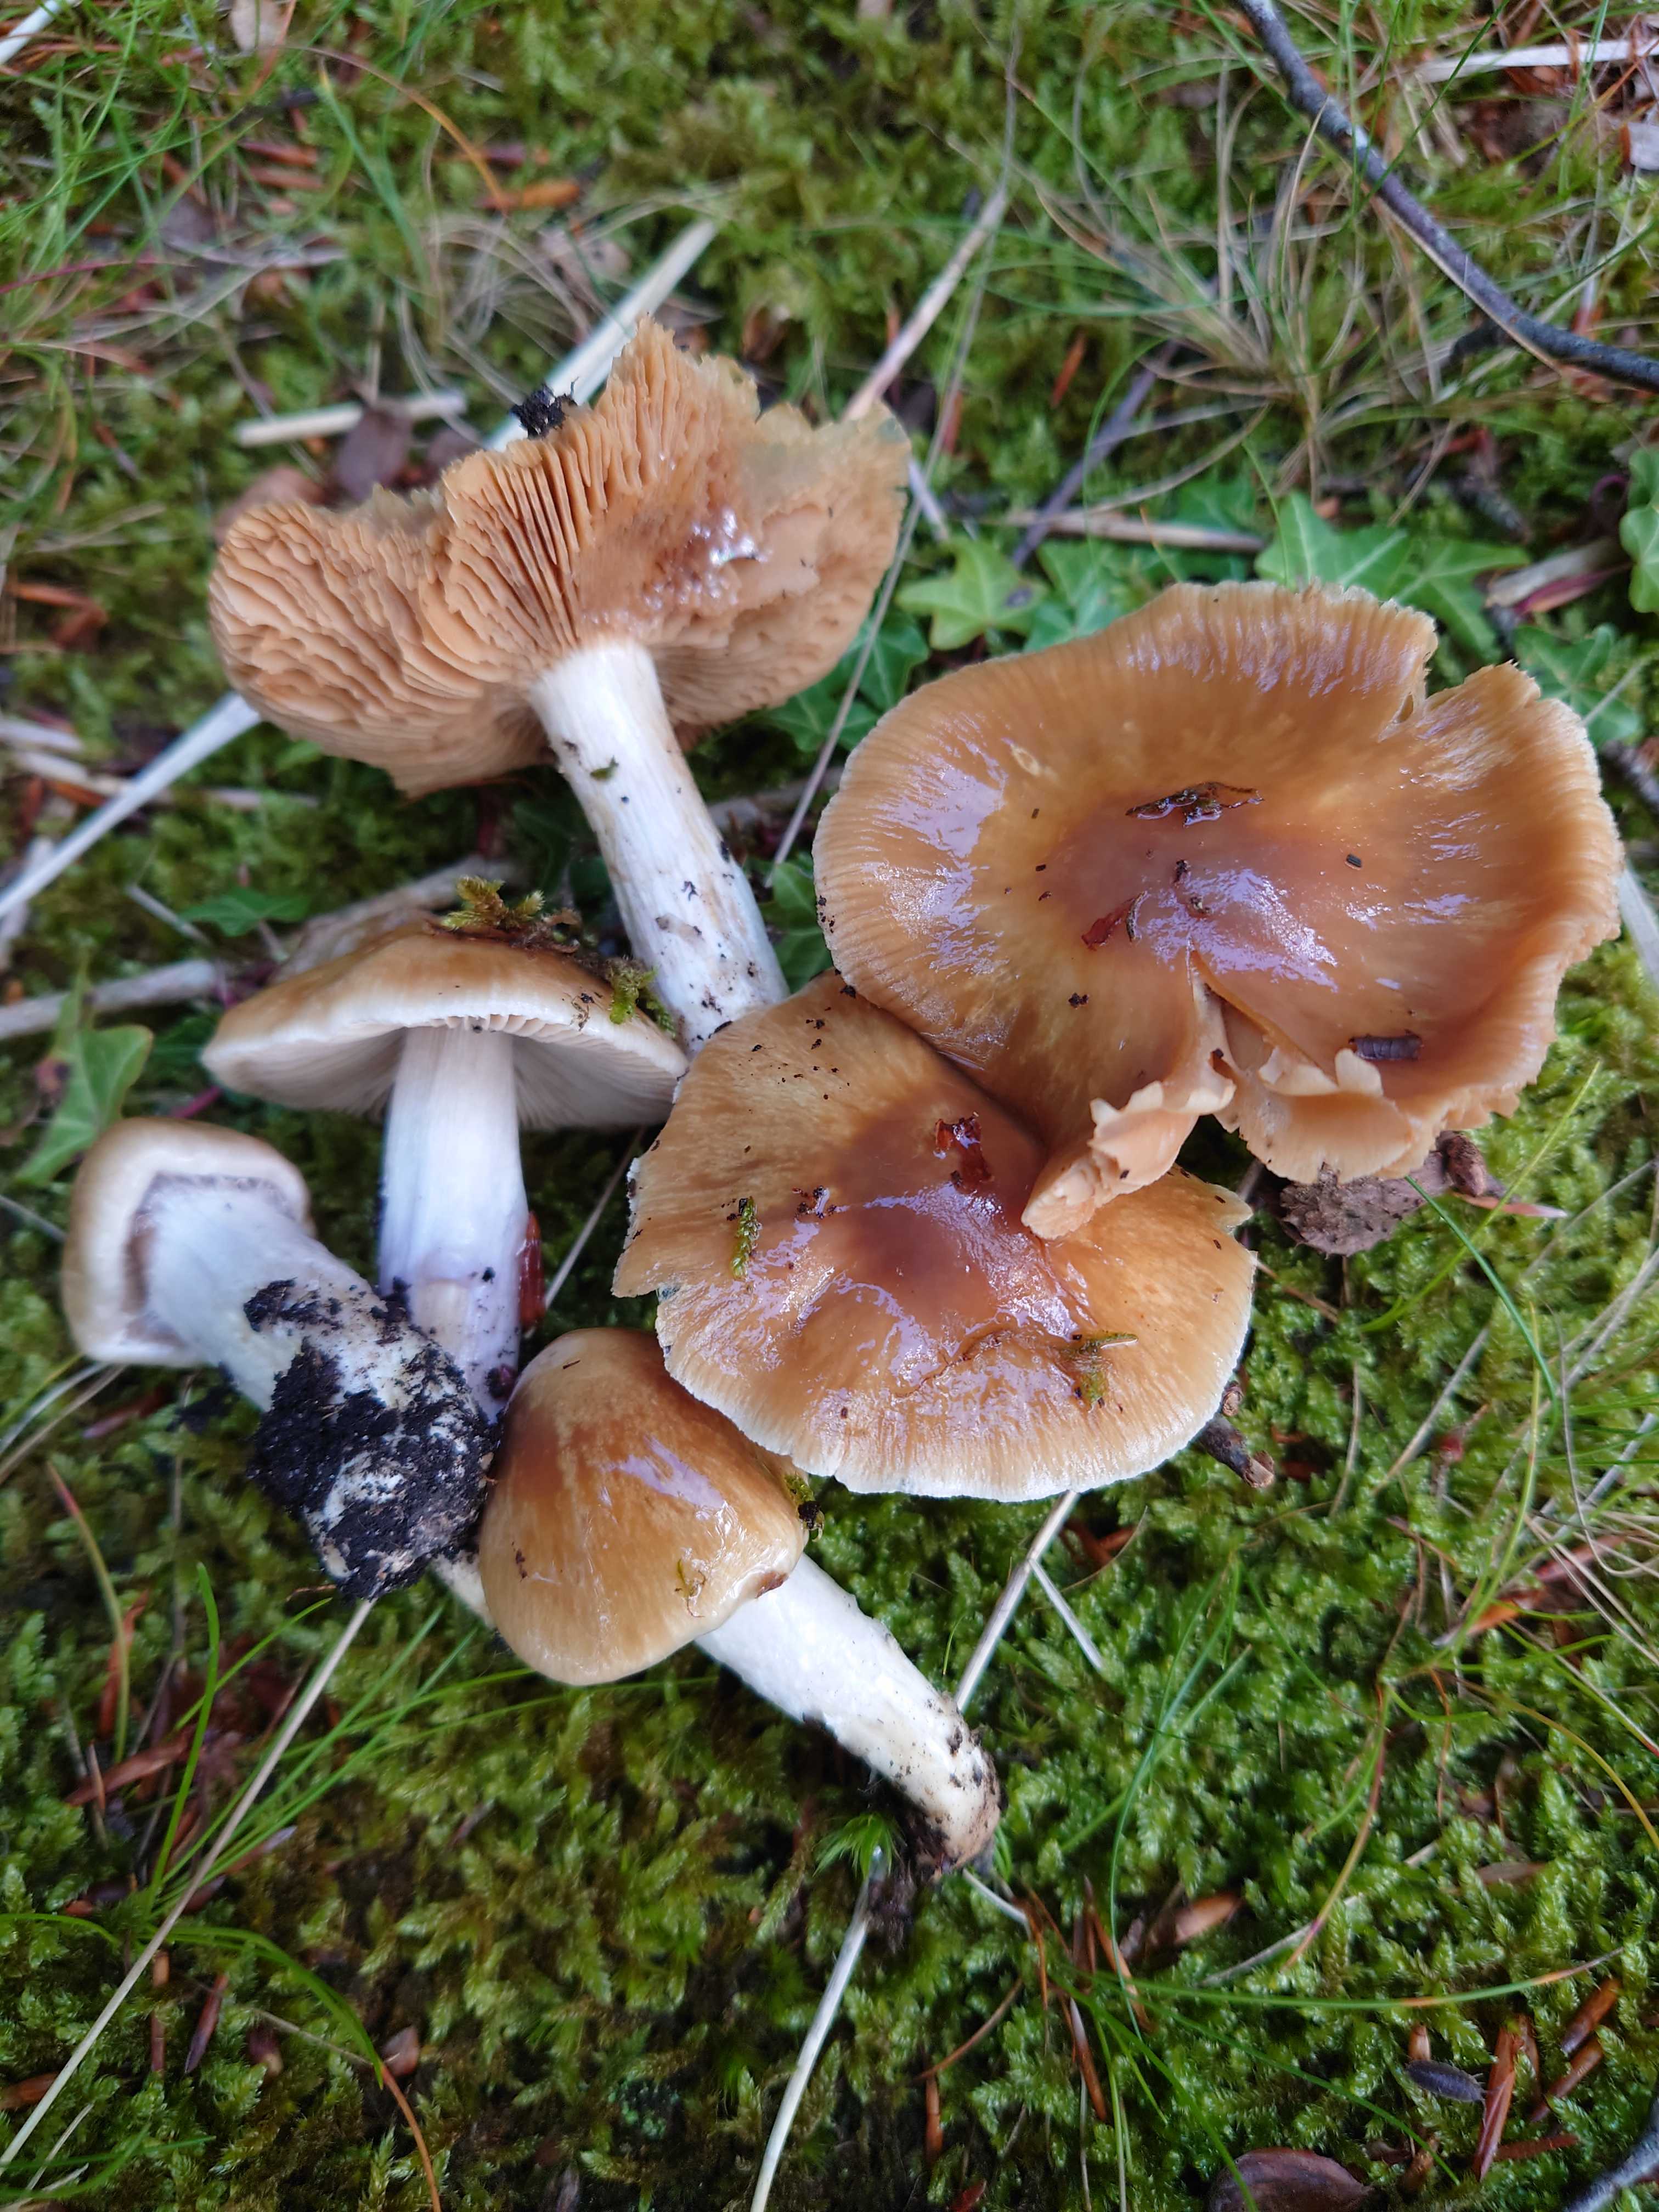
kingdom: Fungi
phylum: Basidiomycota
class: Agaricomycetes
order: Agaricales
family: Cortinariaceae
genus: Cortinarius
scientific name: Cortinarius elatior
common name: høj slørhat
